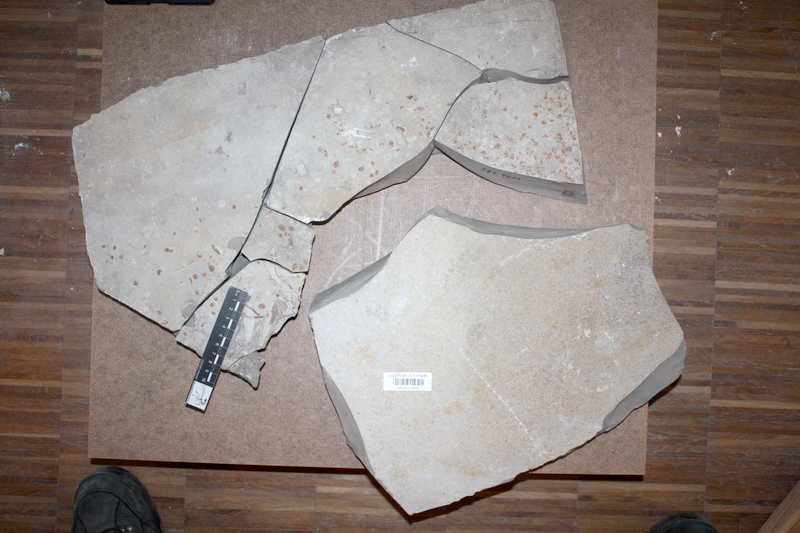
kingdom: Animalia
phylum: Chordata
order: Amiiformes
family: Caturidae
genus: Caturus
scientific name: Caturus
